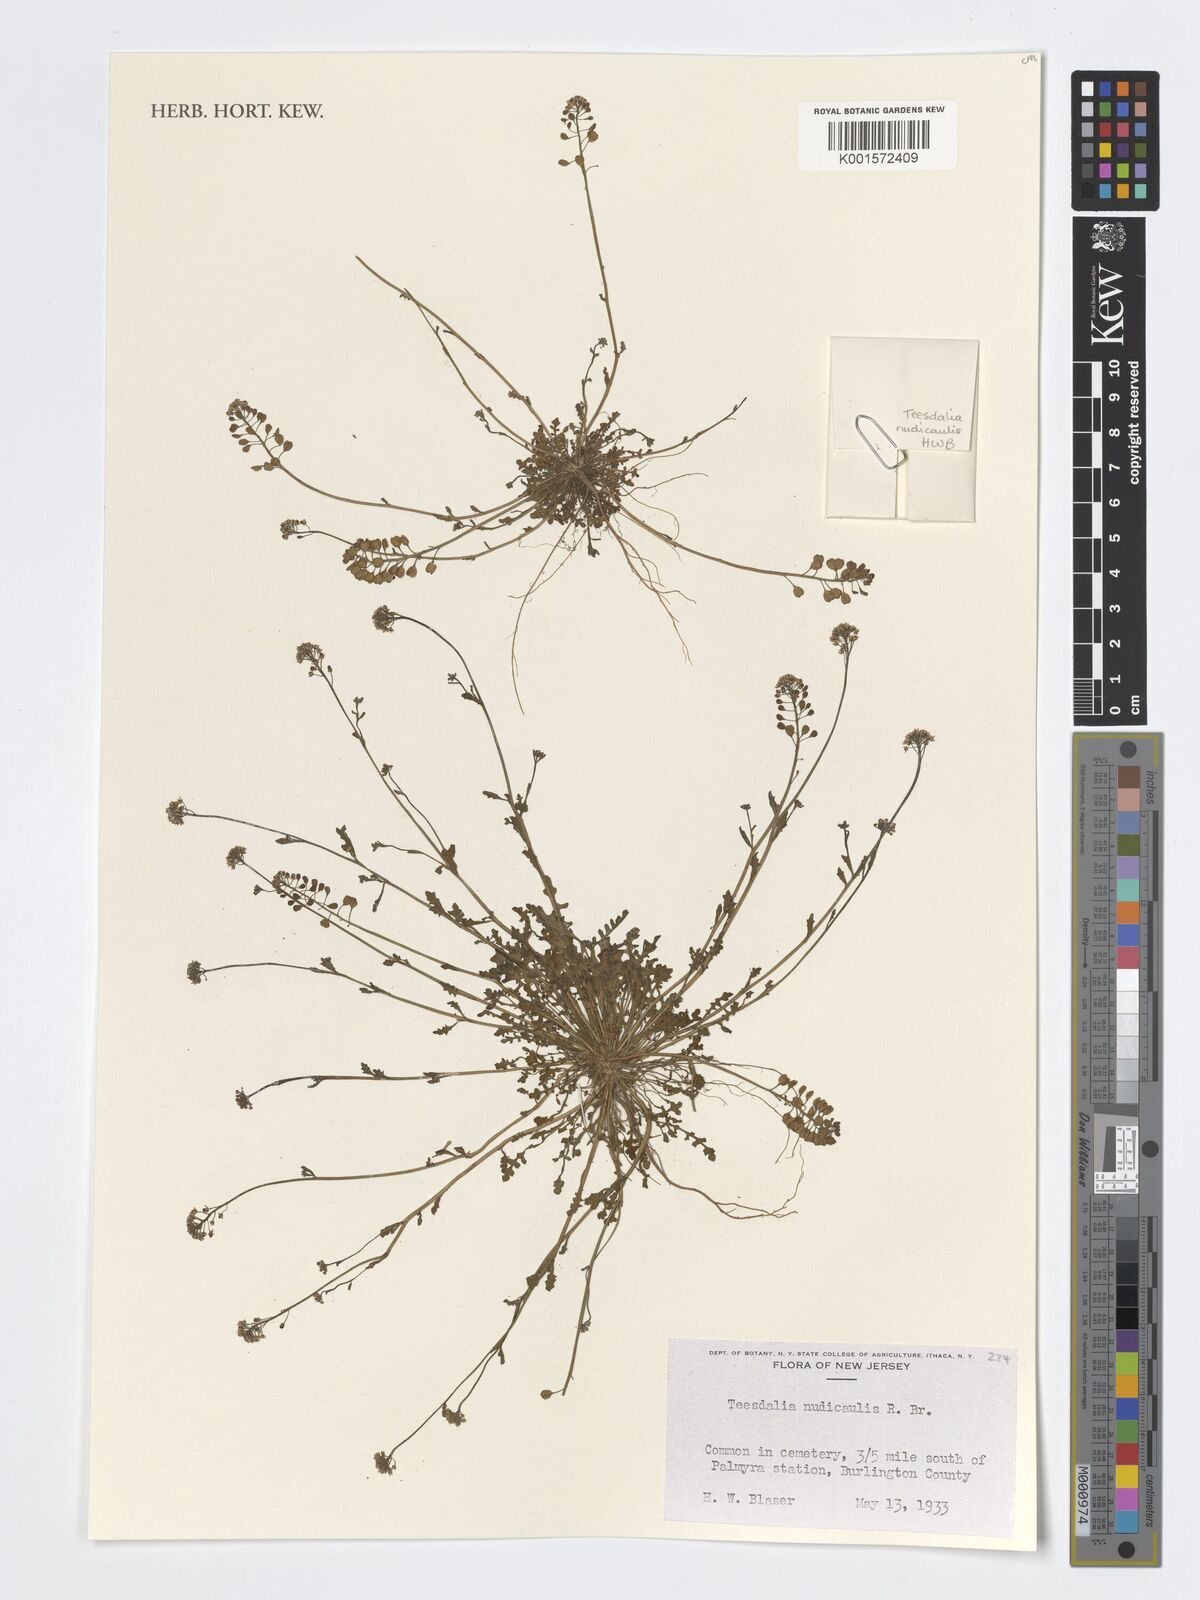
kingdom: Plantae
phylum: Tracheophyta
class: Magnoliopsida
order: Brassicales
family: Brassicaceae
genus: Teesdalia
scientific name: Teesdalia nudicaulis
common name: Shepherd's cress
